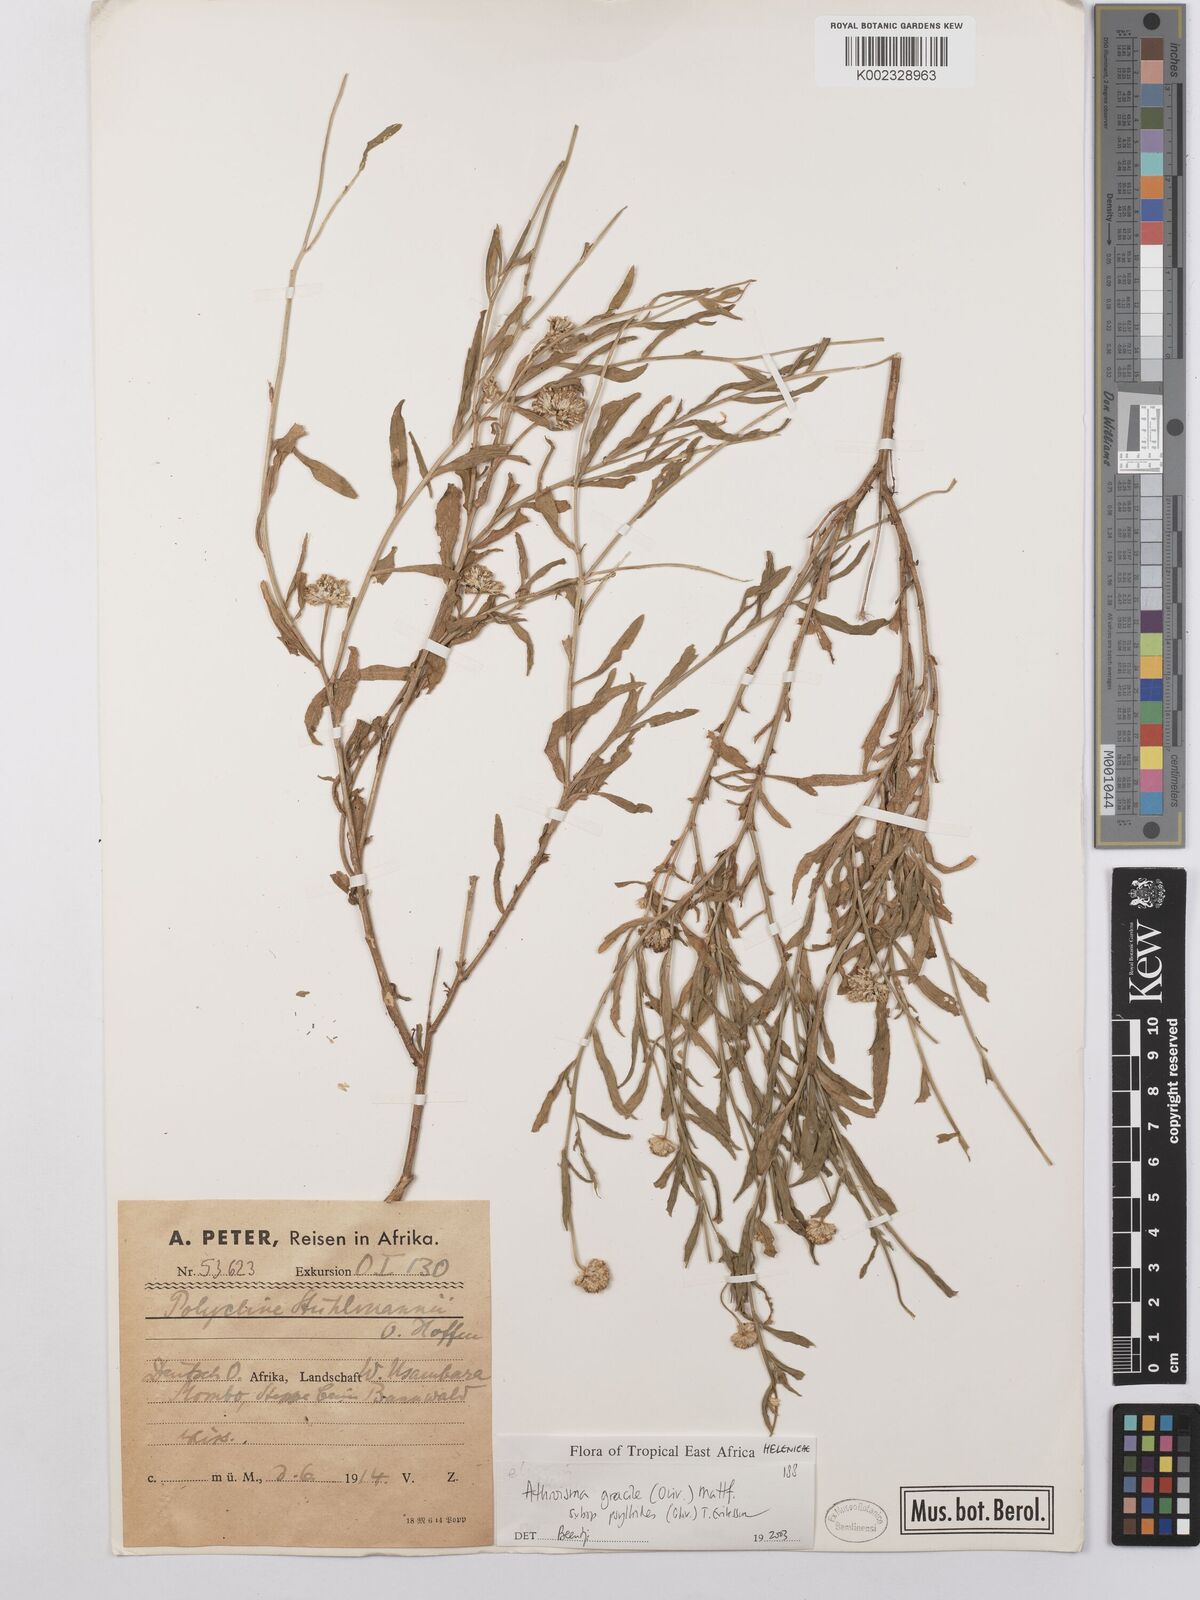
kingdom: Plantae
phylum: Tracheophyta
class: Magnoliopsida
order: Asterales
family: Asteraceae
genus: Athroisma
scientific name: Athroisma gracile
